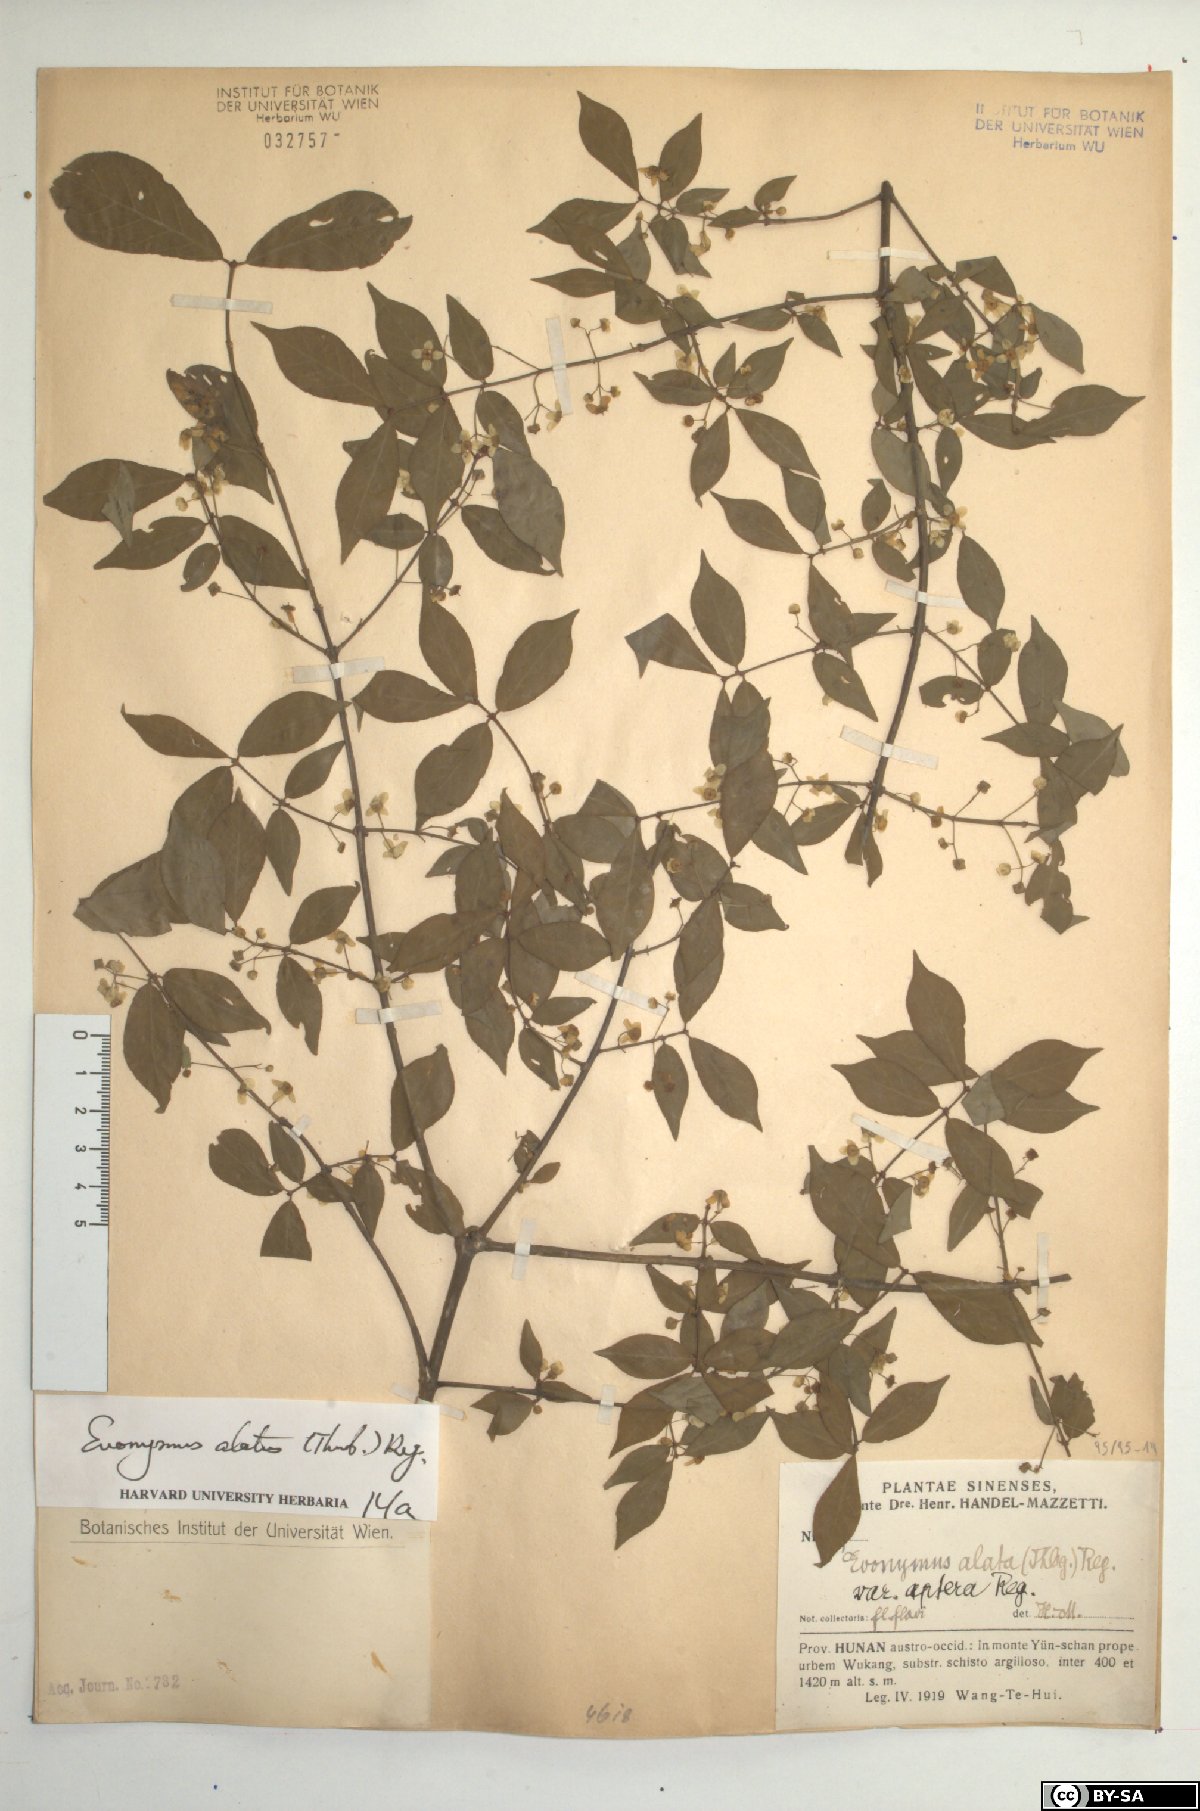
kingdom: Plantae
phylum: Tracheophyta
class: Magnoliopsida
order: Celastrales
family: Celastraceae
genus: Euonymus
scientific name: Euonymus alatus
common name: Winged euonymus
